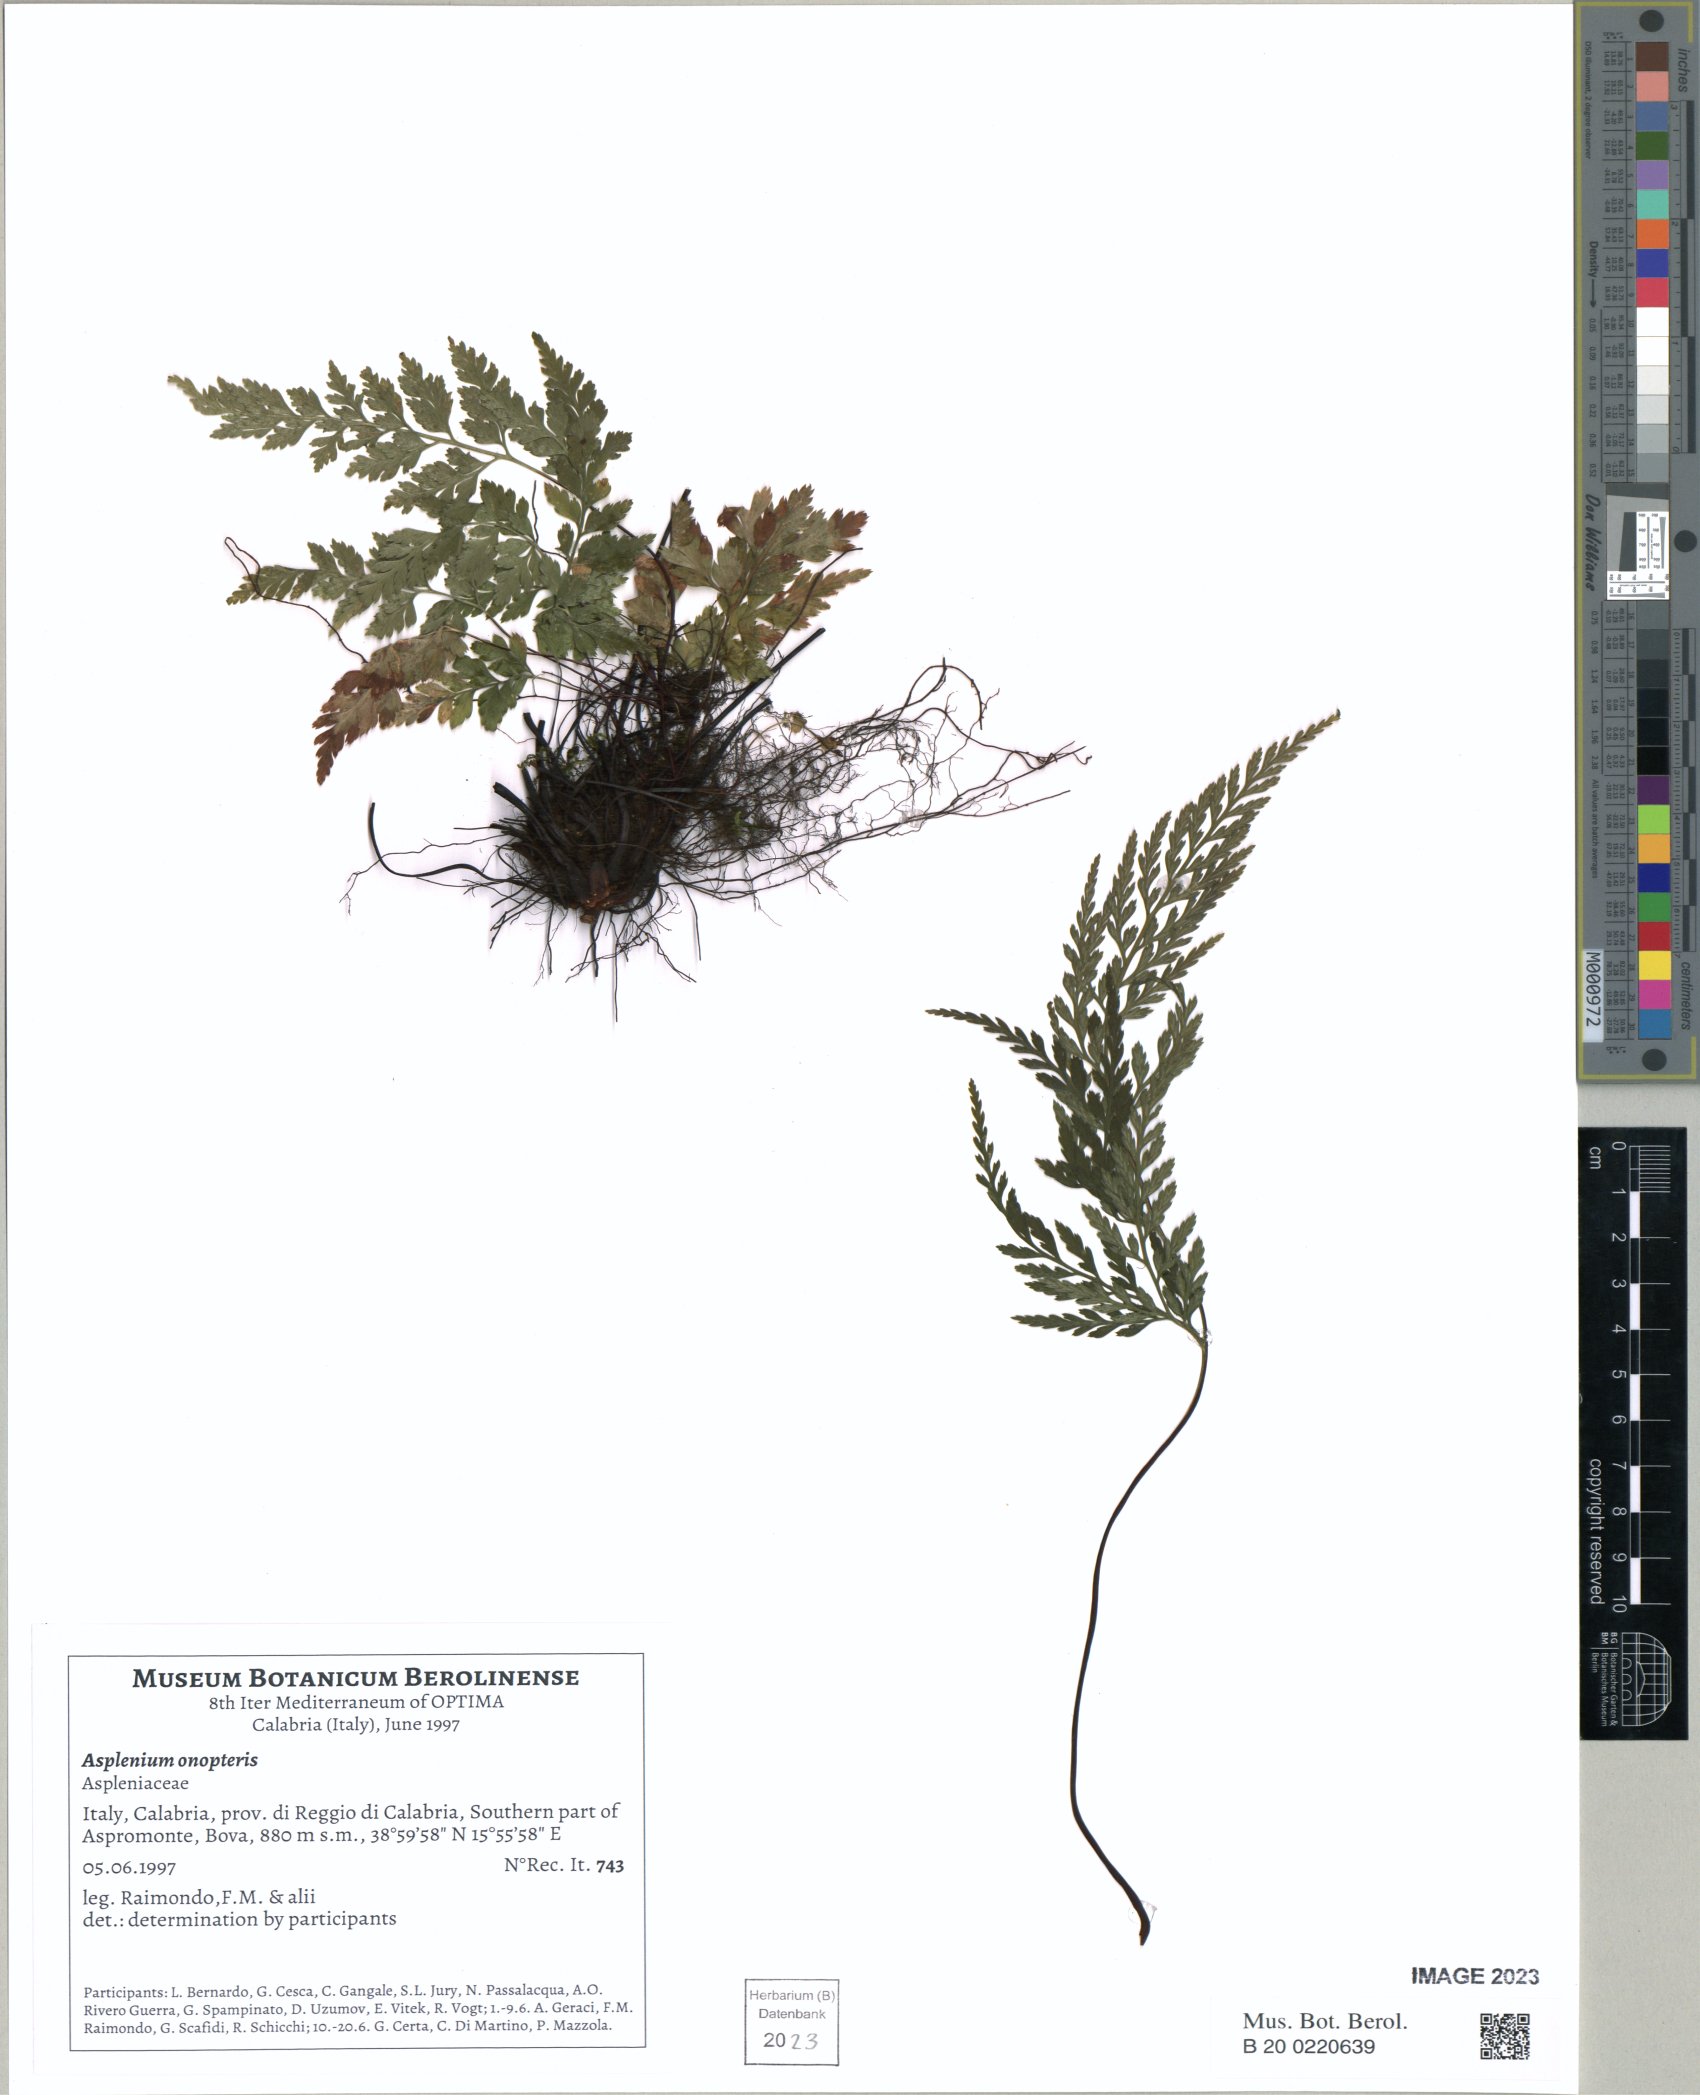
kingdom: Plantae
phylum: Tracheophyta
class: Polypodiopsida
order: Polypodiales
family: Aspleniaceae
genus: Asplenium
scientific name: Asplenium onopteris
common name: Irish spleenwort
